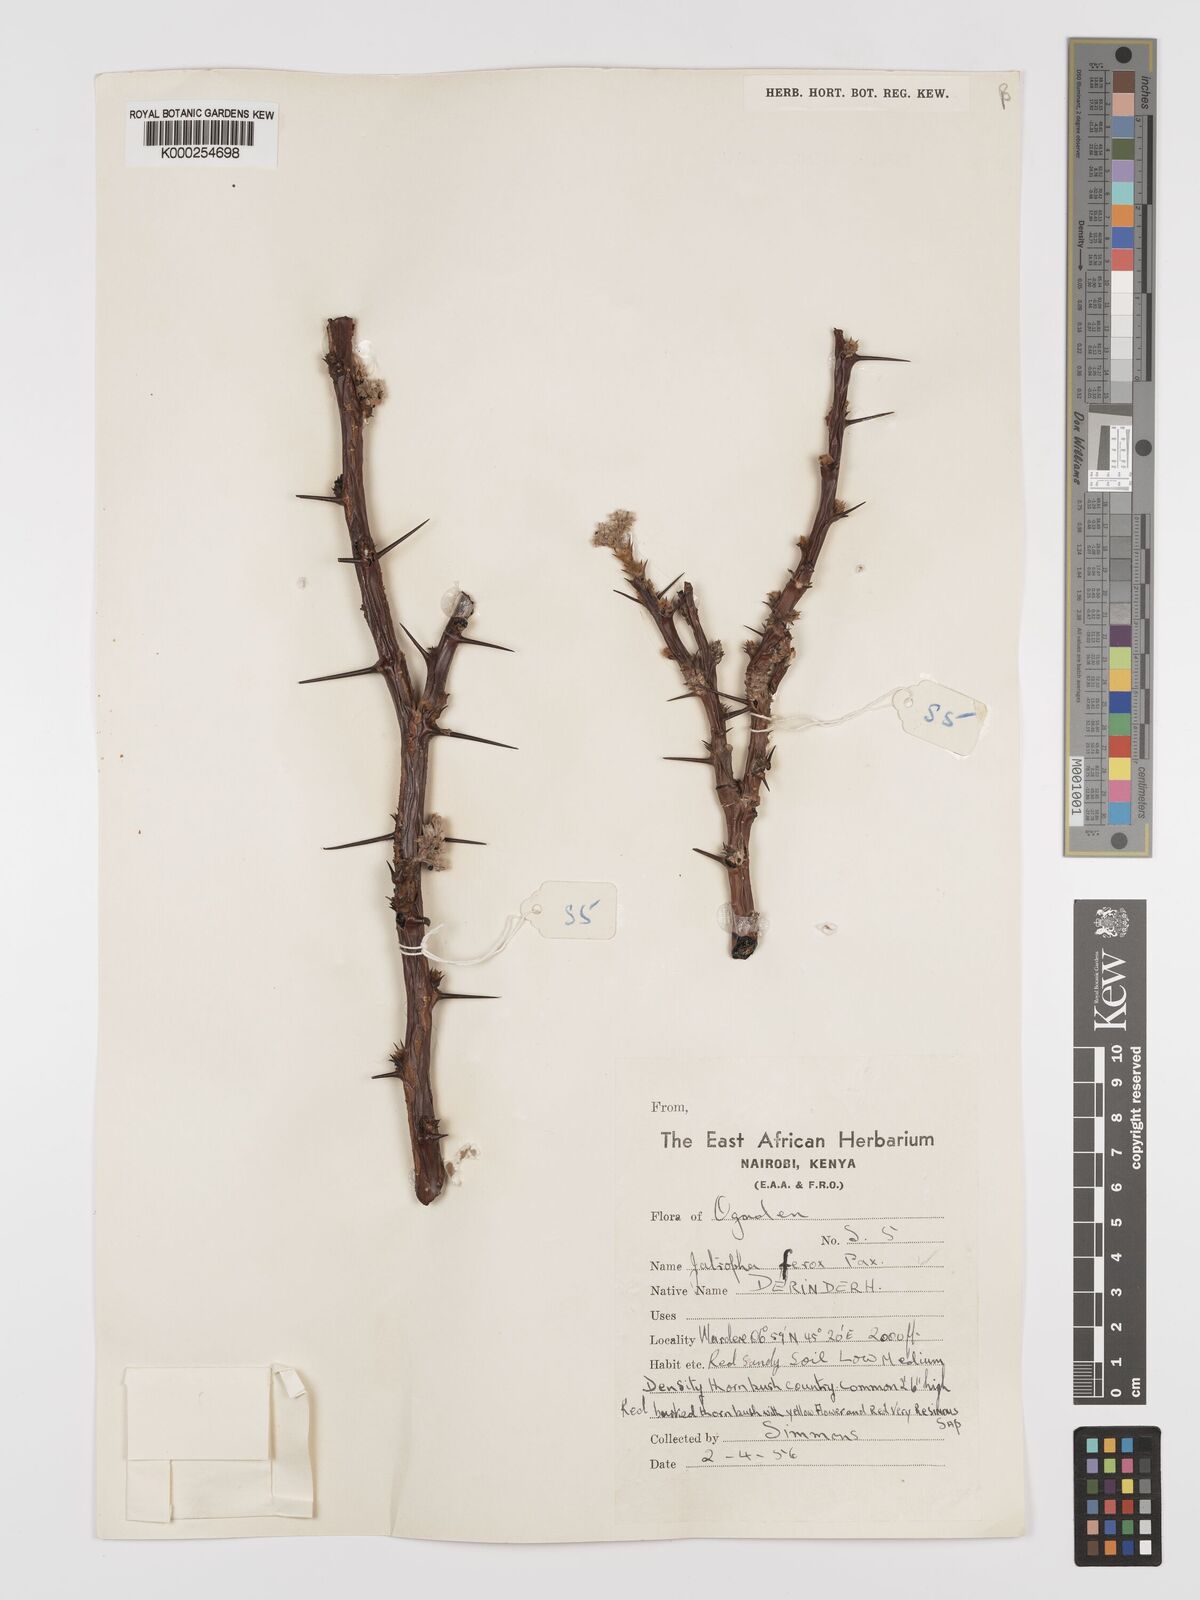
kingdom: Plantae
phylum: Tracheophyta
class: Magnoliopsida
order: Malpighiales
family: Euphorbiaceae
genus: Jatropha
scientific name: Jatropha dichtar
